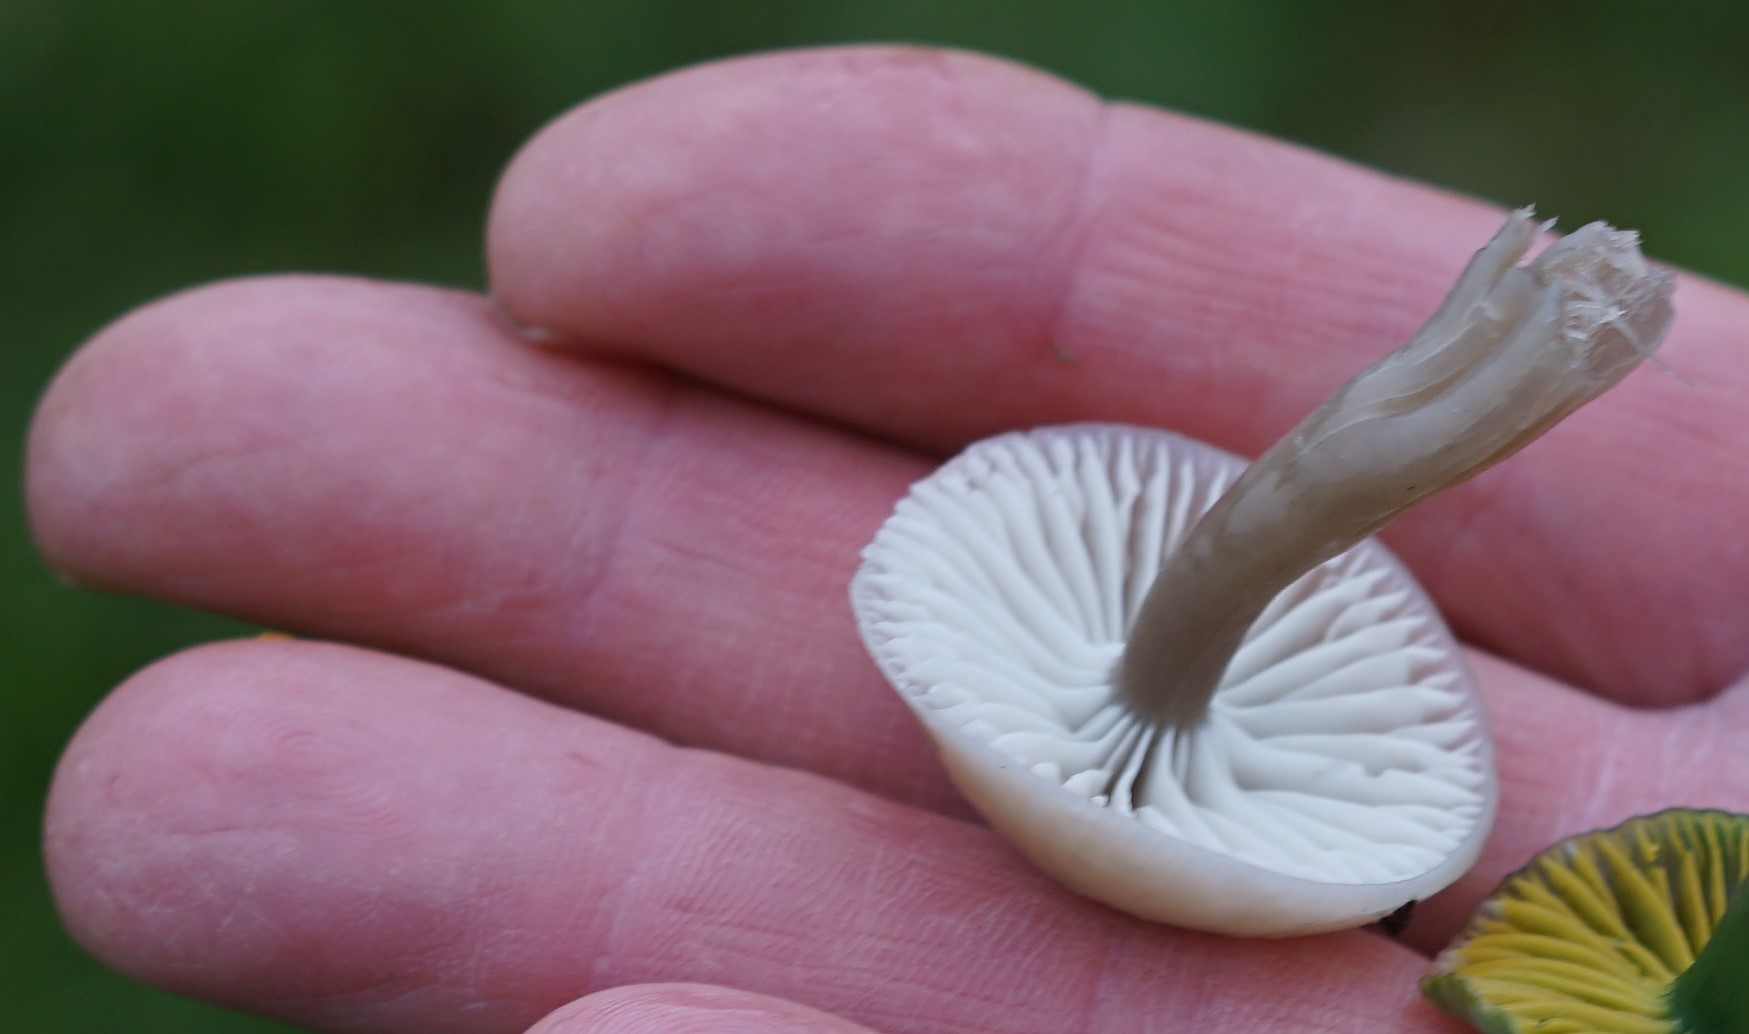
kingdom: Fungi
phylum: Basidiomycota
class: Agaricomycetes
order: Agaricales
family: Hygrophoraceae
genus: Gliophorus
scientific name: Gliophorus irrigatus
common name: slimet vokshat
